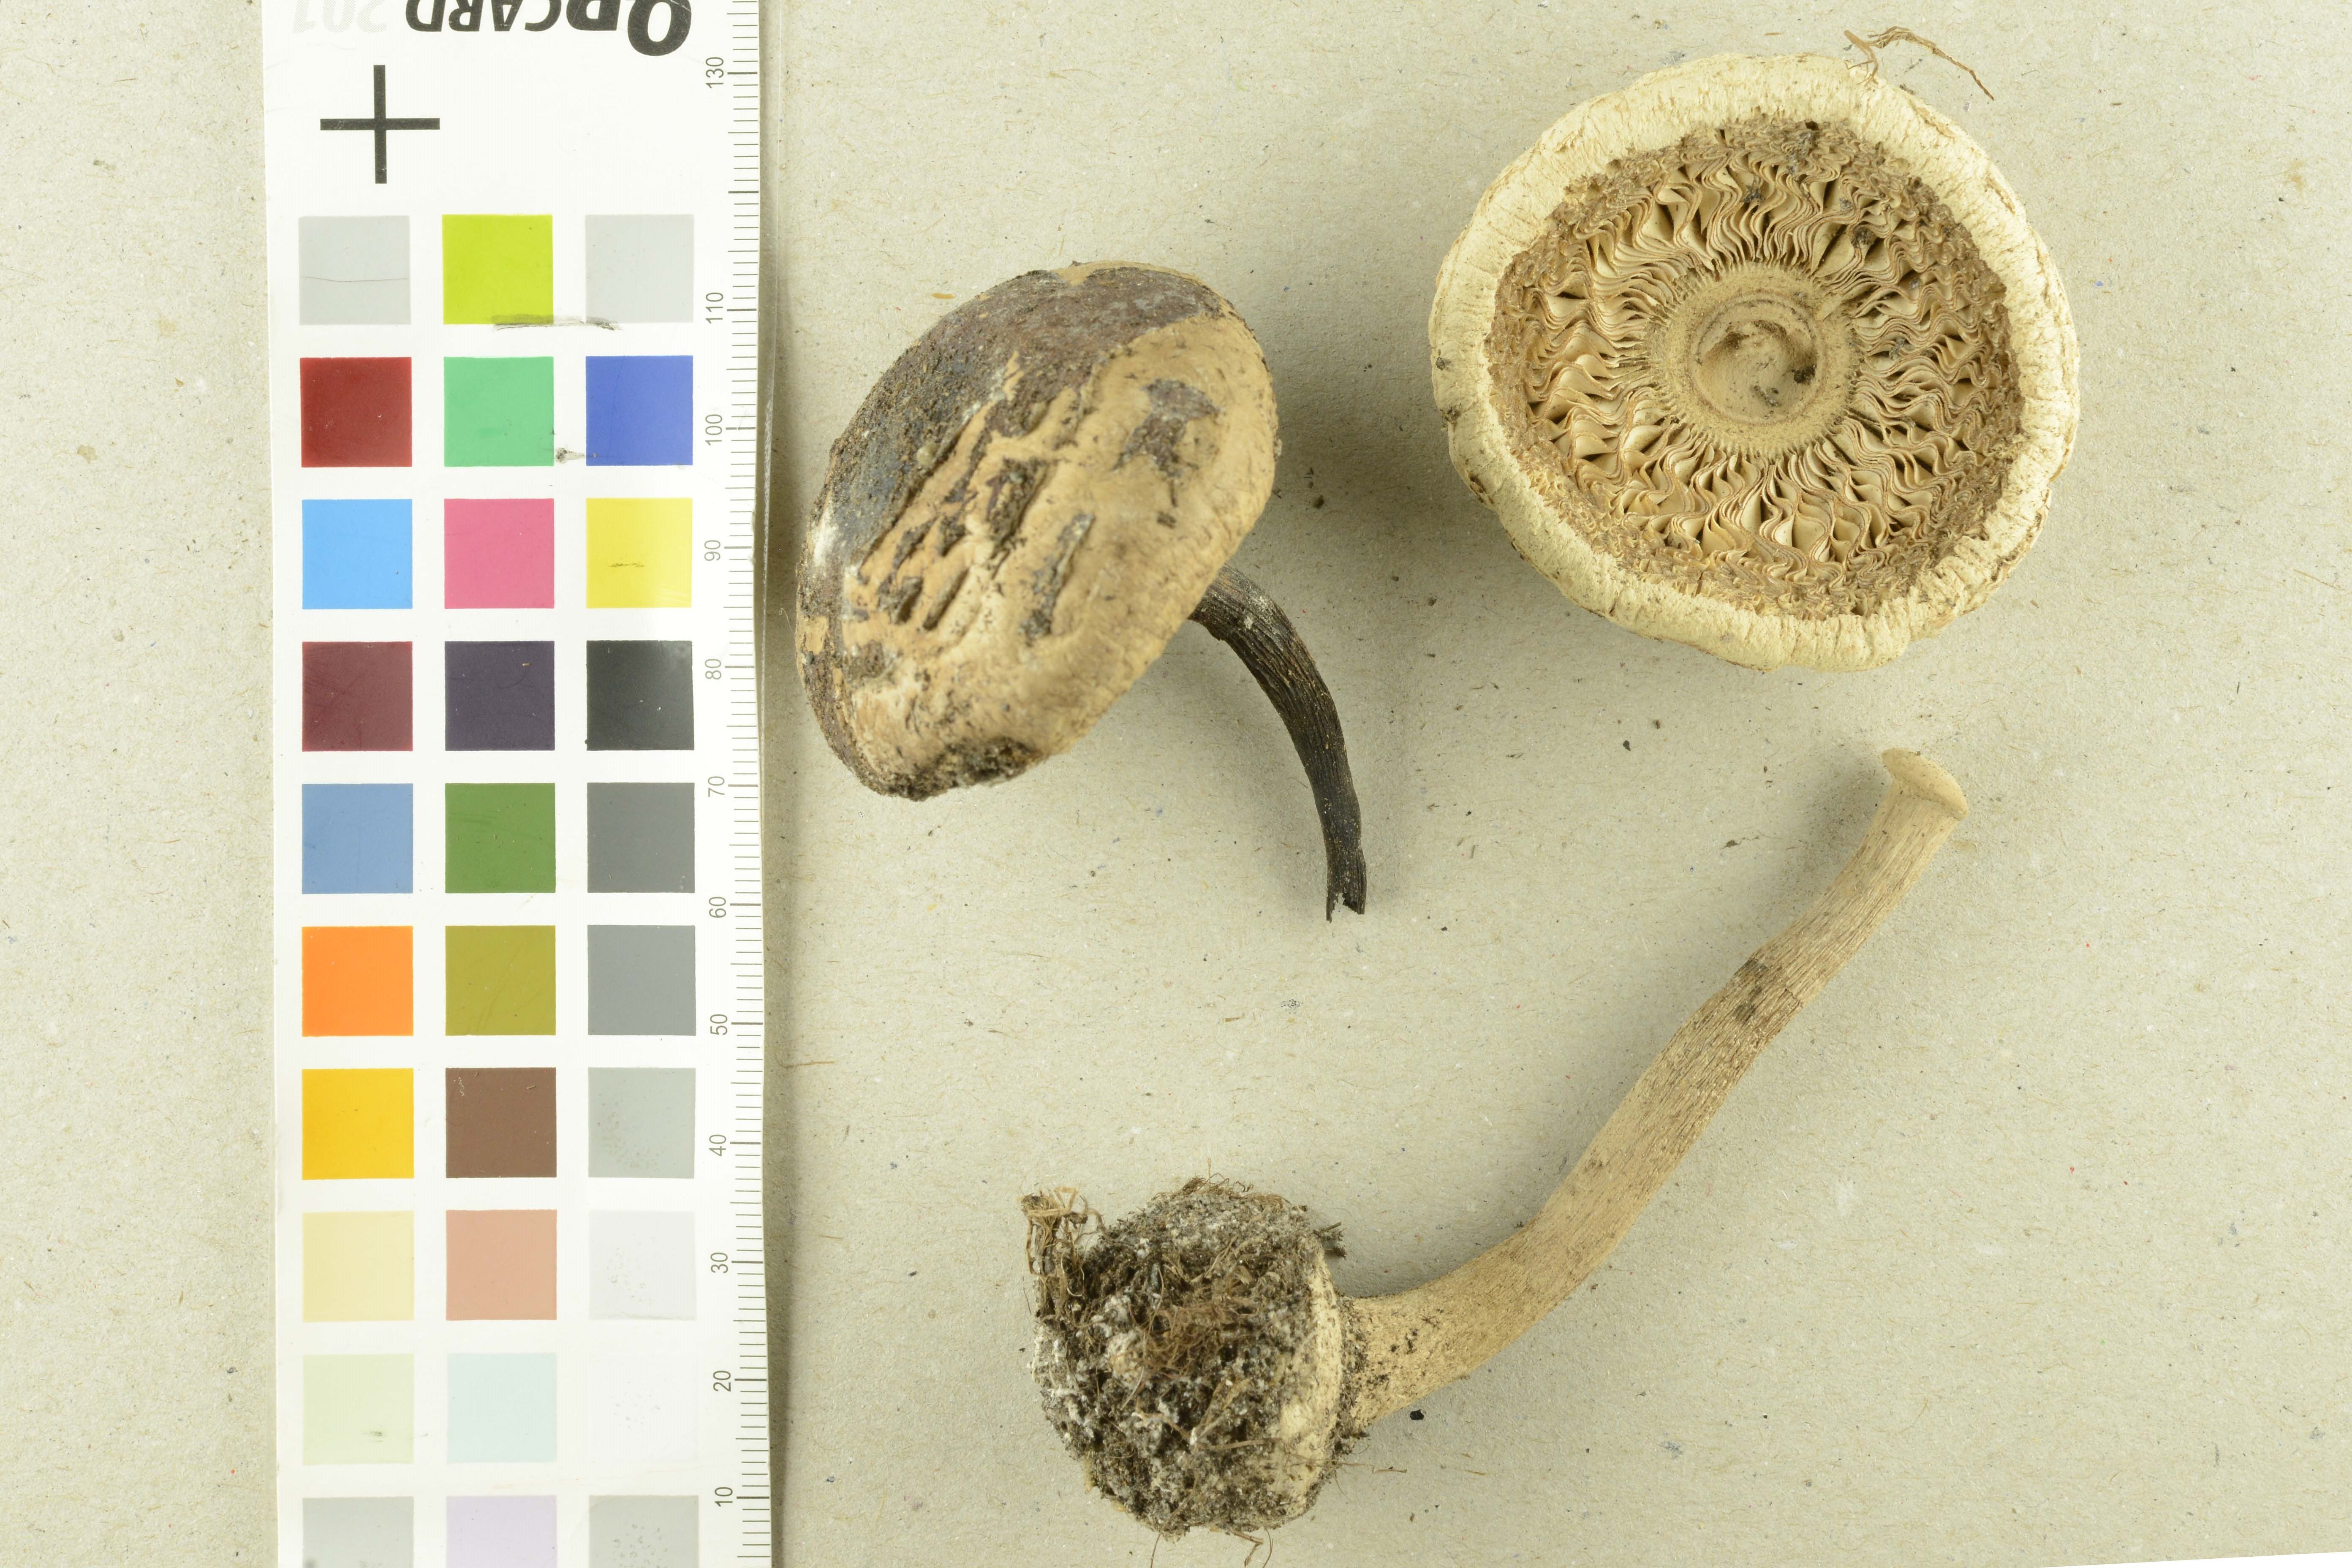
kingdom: Fungi
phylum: Basidiomycota
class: Agaricomycetes
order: Agaricales
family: Agaricaceae
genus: Chlorophyllum
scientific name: Chlorophyllum brunneum
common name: Brown parasol
